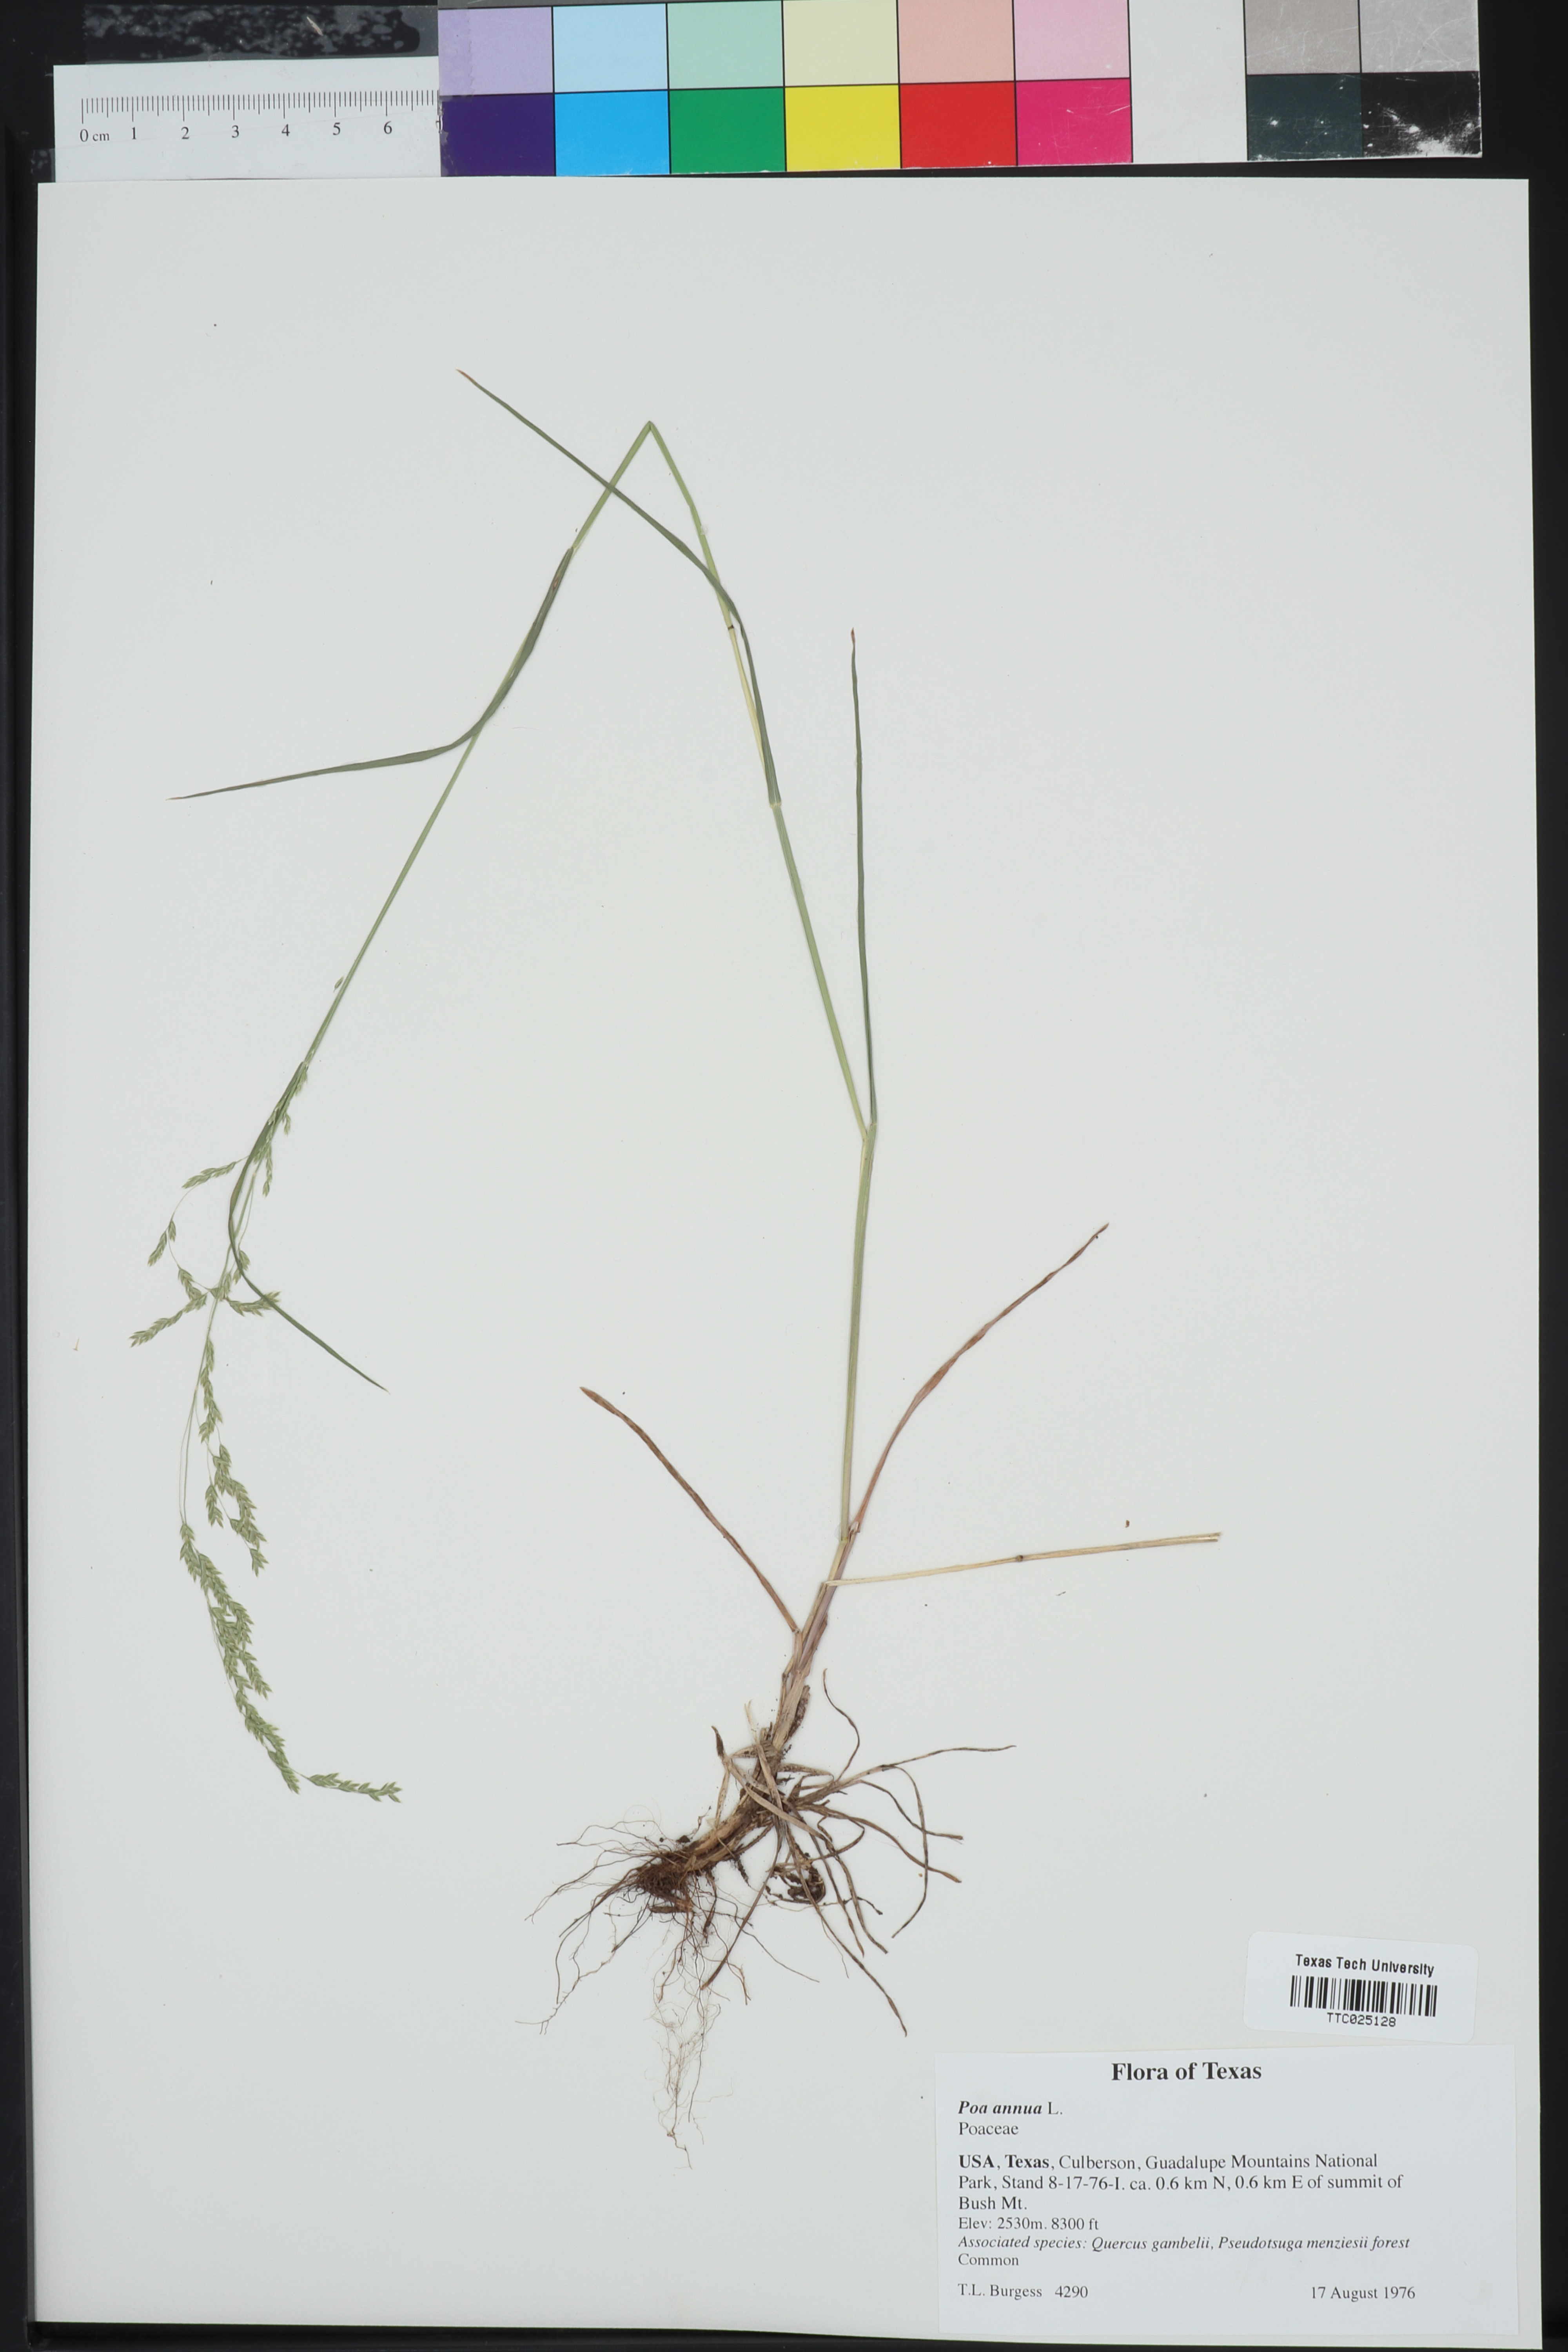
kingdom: Plantae
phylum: Tracheophyta
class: Liliopsida
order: Poales
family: Poaceae
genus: Poa
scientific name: Poa annua
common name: Annual bluegrass
